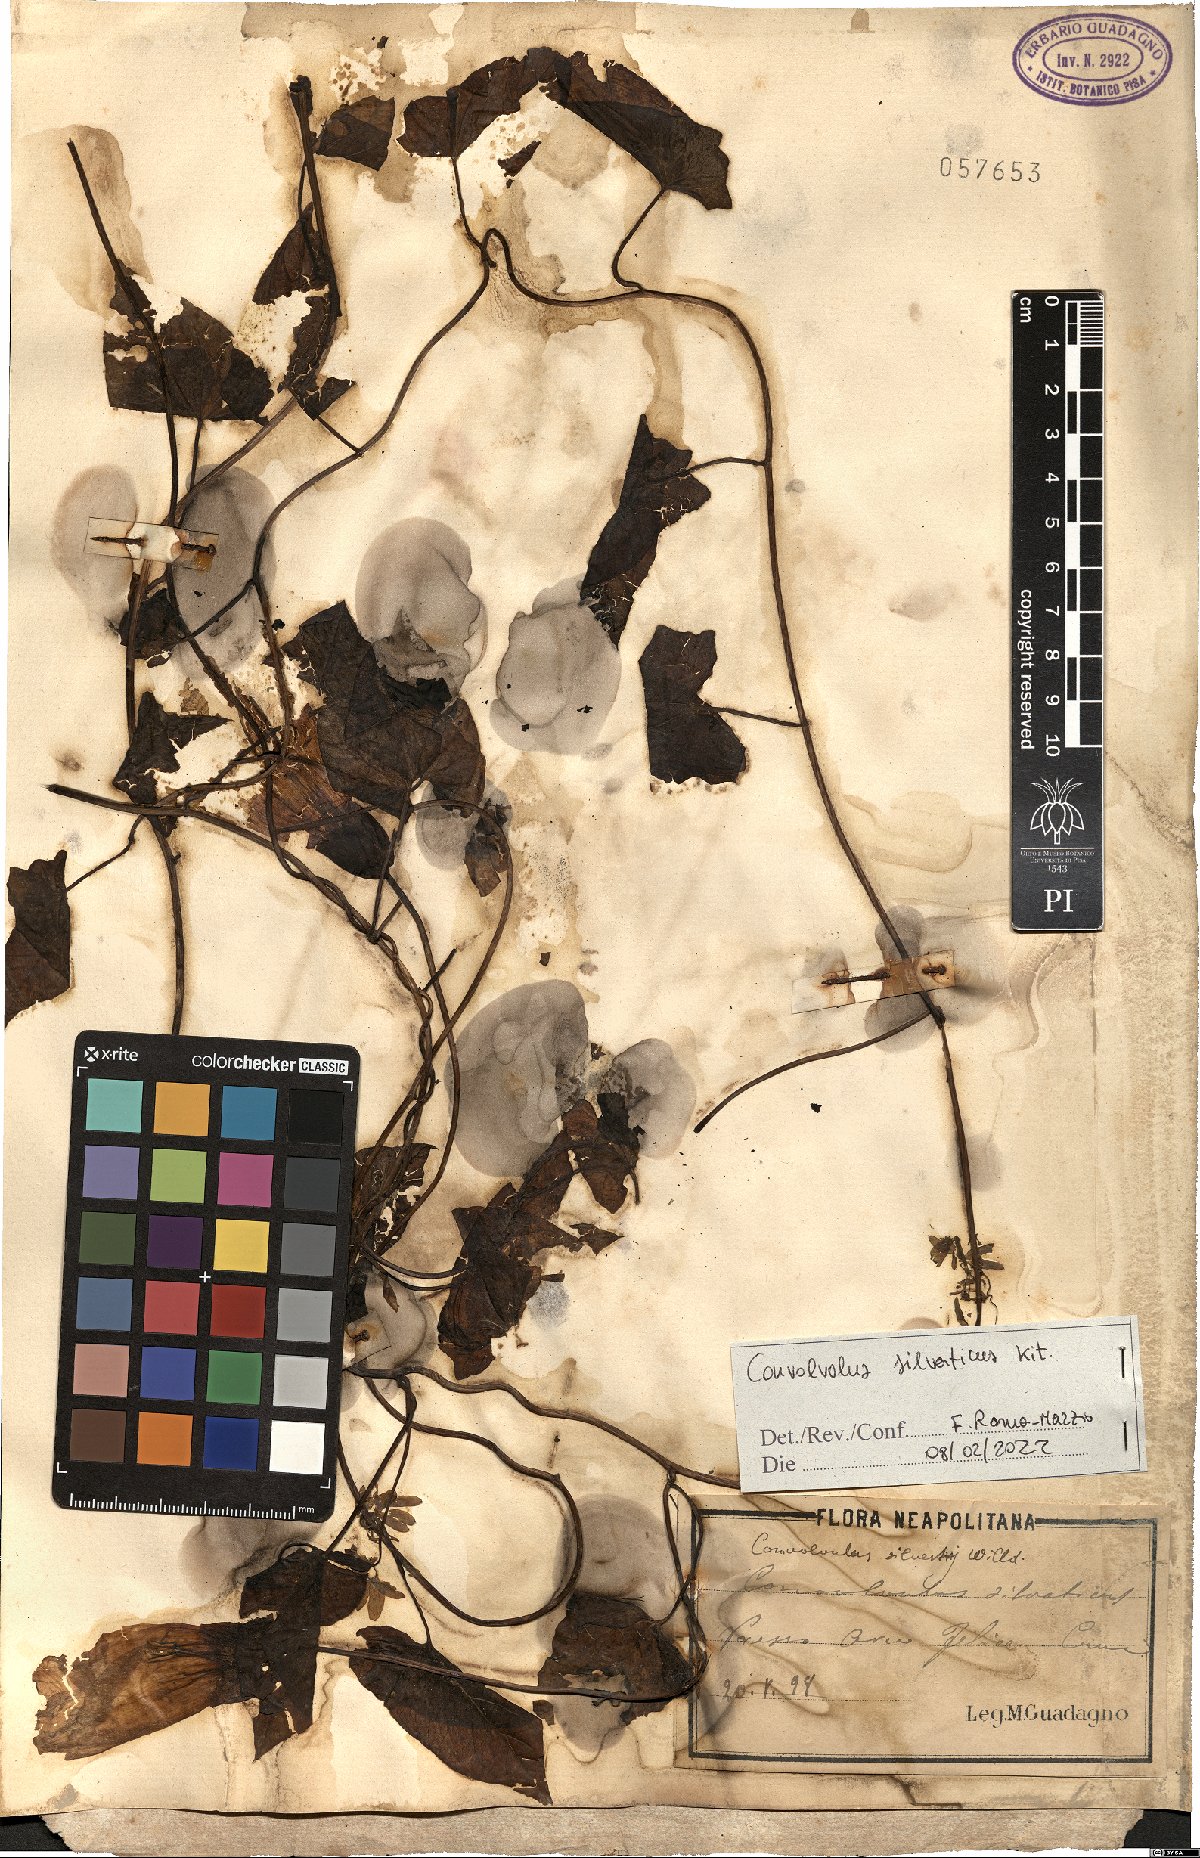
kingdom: Plantae
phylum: Tracheophyta
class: Magnoliopsida
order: Solanales
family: Convolvulaceae
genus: Calystegia
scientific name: Calystegia silvatica
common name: Large bindweed
